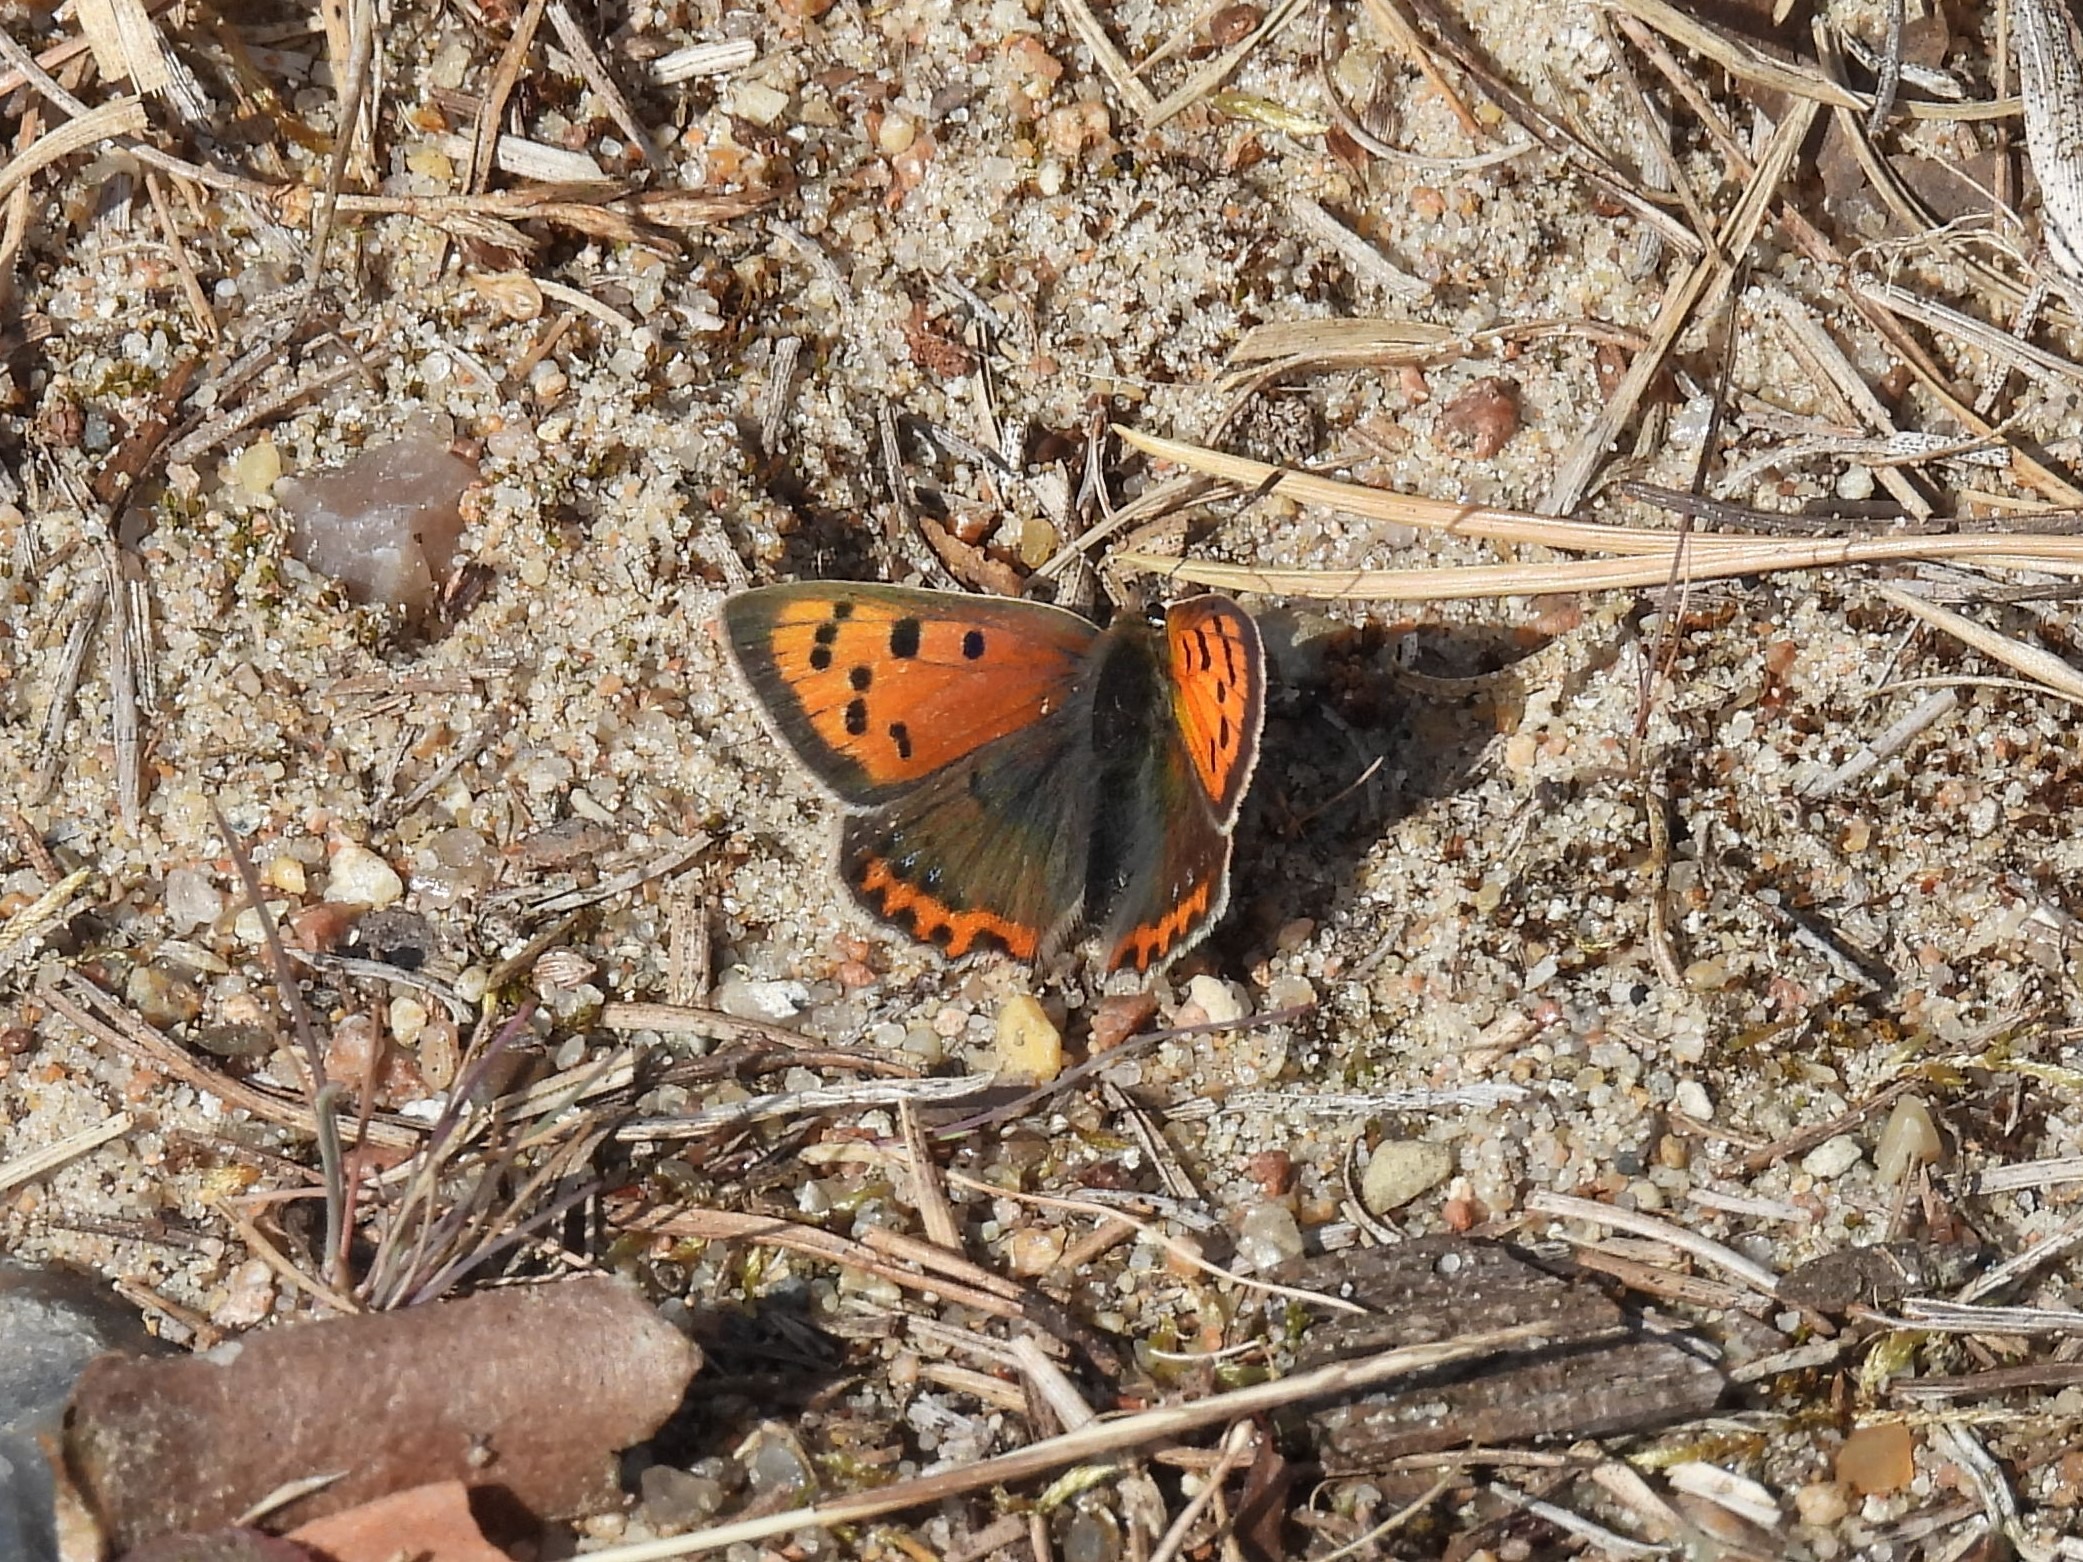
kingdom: Animalia
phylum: Arthropoda
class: Insecta
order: Lepidoptera
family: Lycaenidae
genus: Lycaena
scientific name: Lycaena phlaeas
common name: Lille ildfugl
